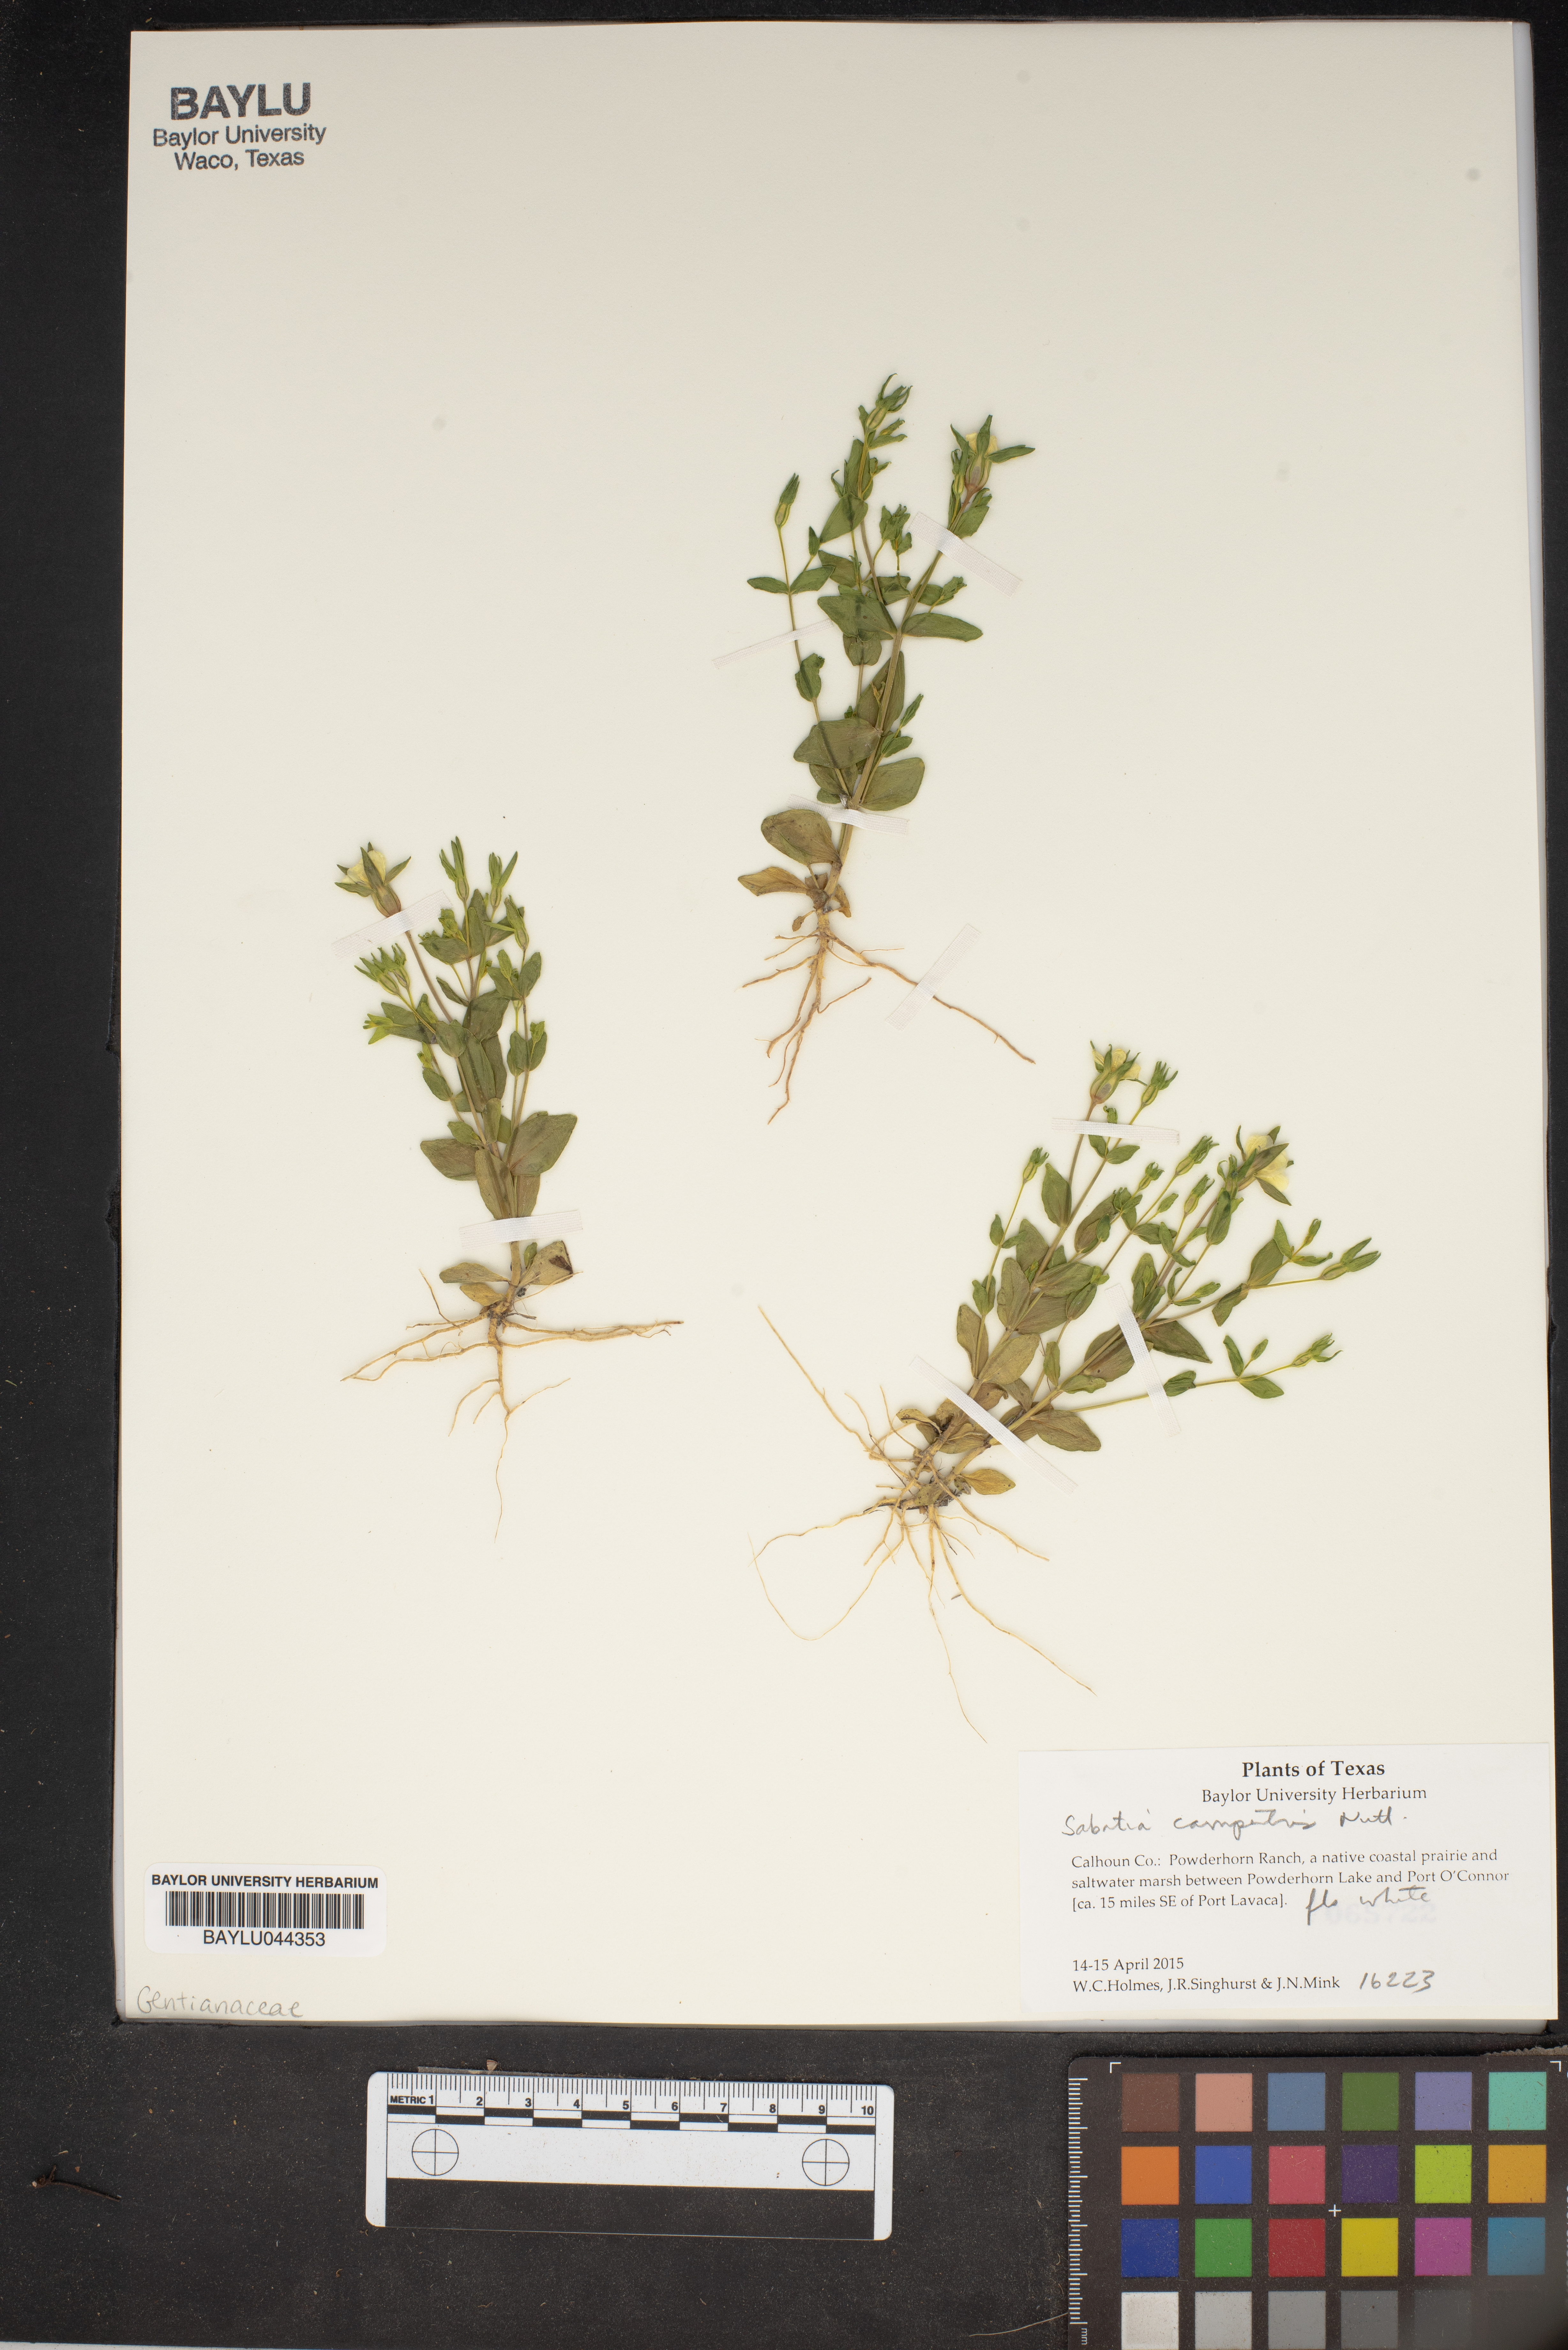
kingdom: Plantae
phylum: Tracheophyta
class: Magnoliopsida
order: Gentianales
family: Gentianaceae
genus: Sabatia
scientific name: Sabatia campestris
